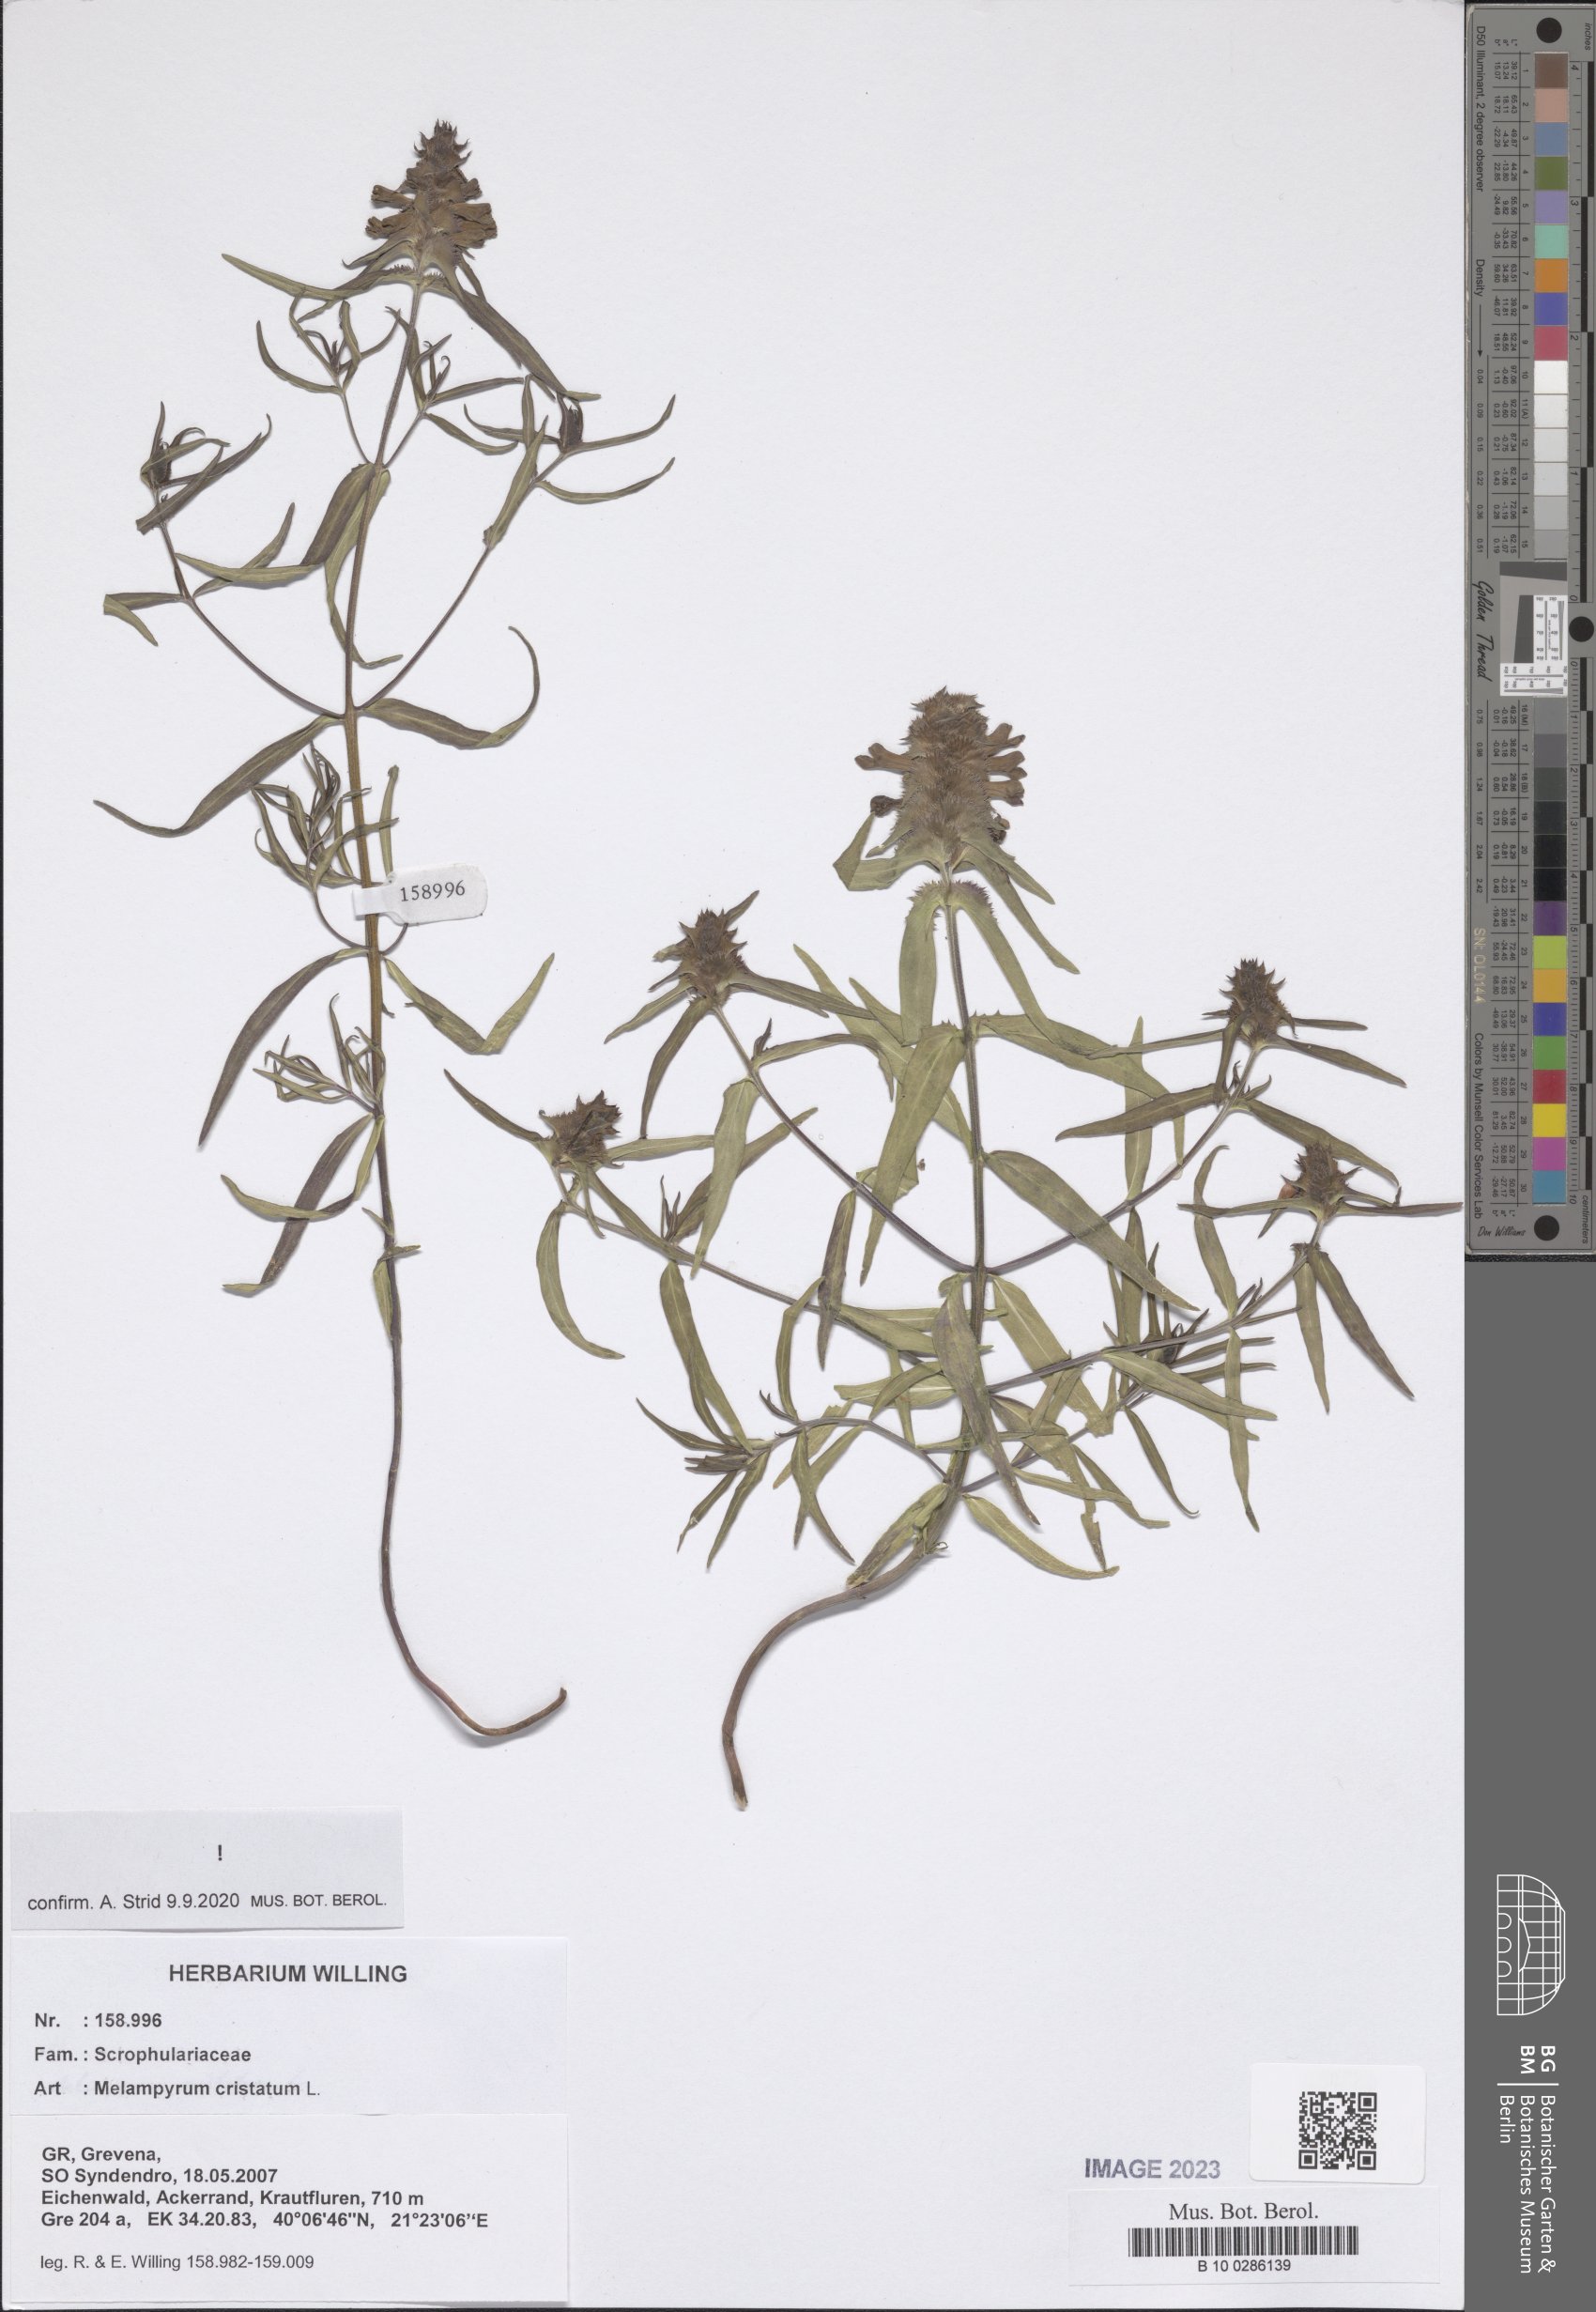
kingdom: Plantae
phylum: Tracheophyta
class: Magnoliopsida
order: Lamiales
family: Orobanchaceae
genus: Melampyrum
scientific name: Melampyrum cristatum
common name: Crested cow-wheat
